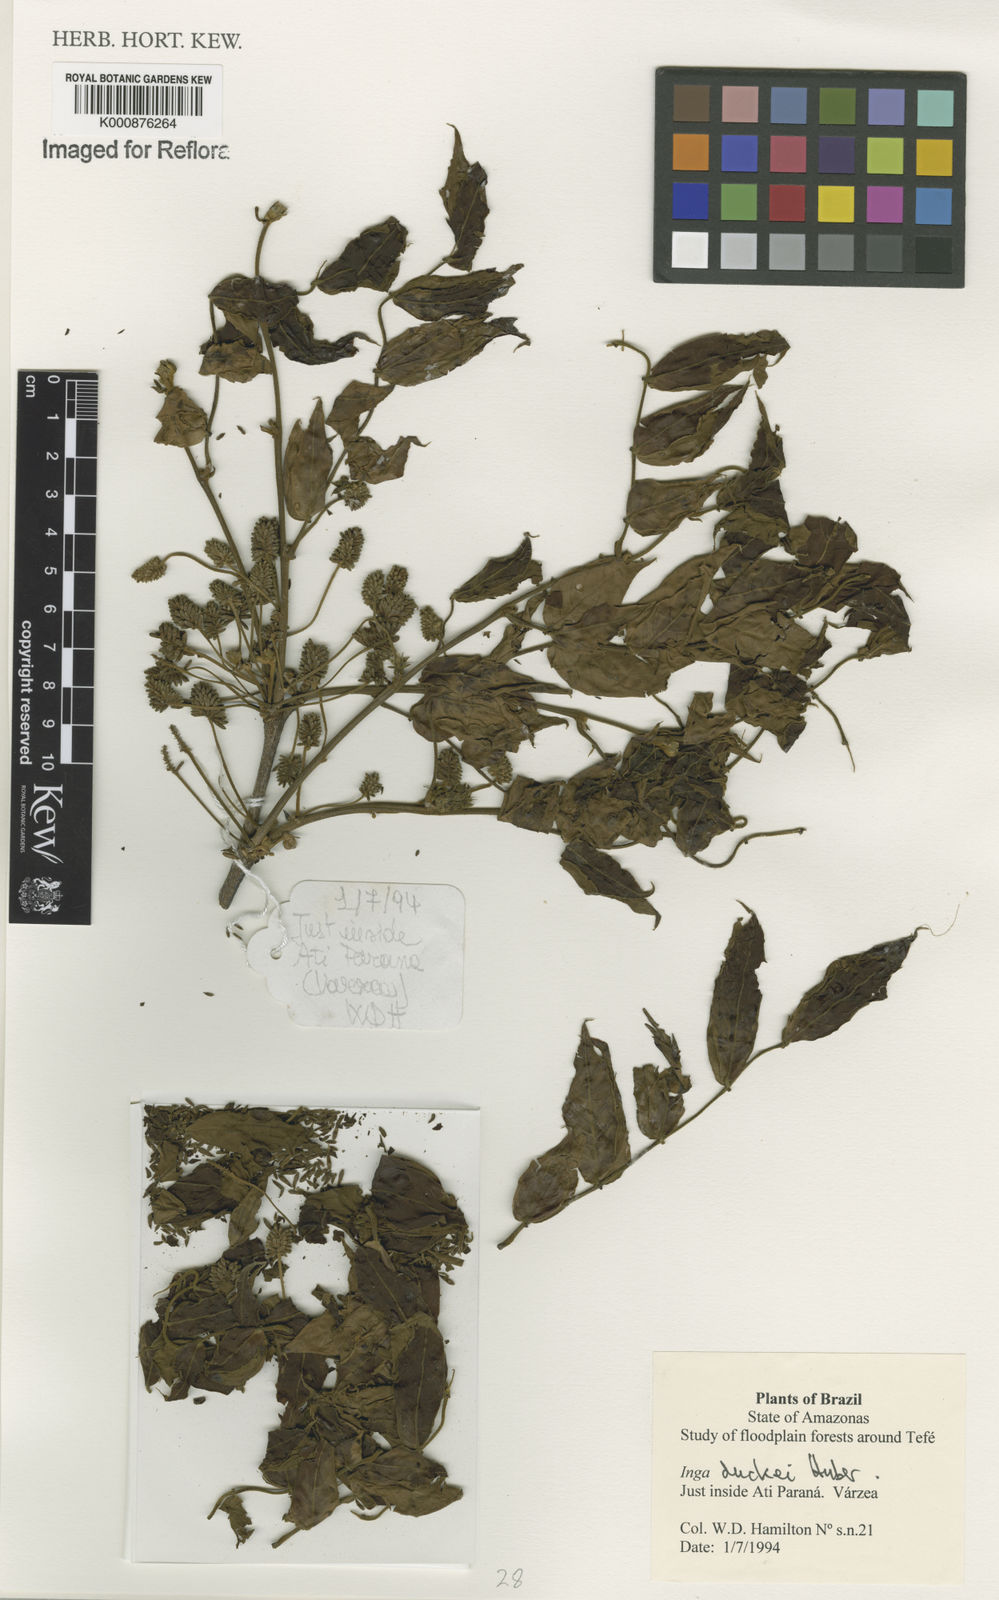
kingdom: Plantae
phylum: Tracheophyta
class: Magnoliopsida
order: Fabales
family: Fabaceae
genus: Inga
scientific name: Inga duckei
